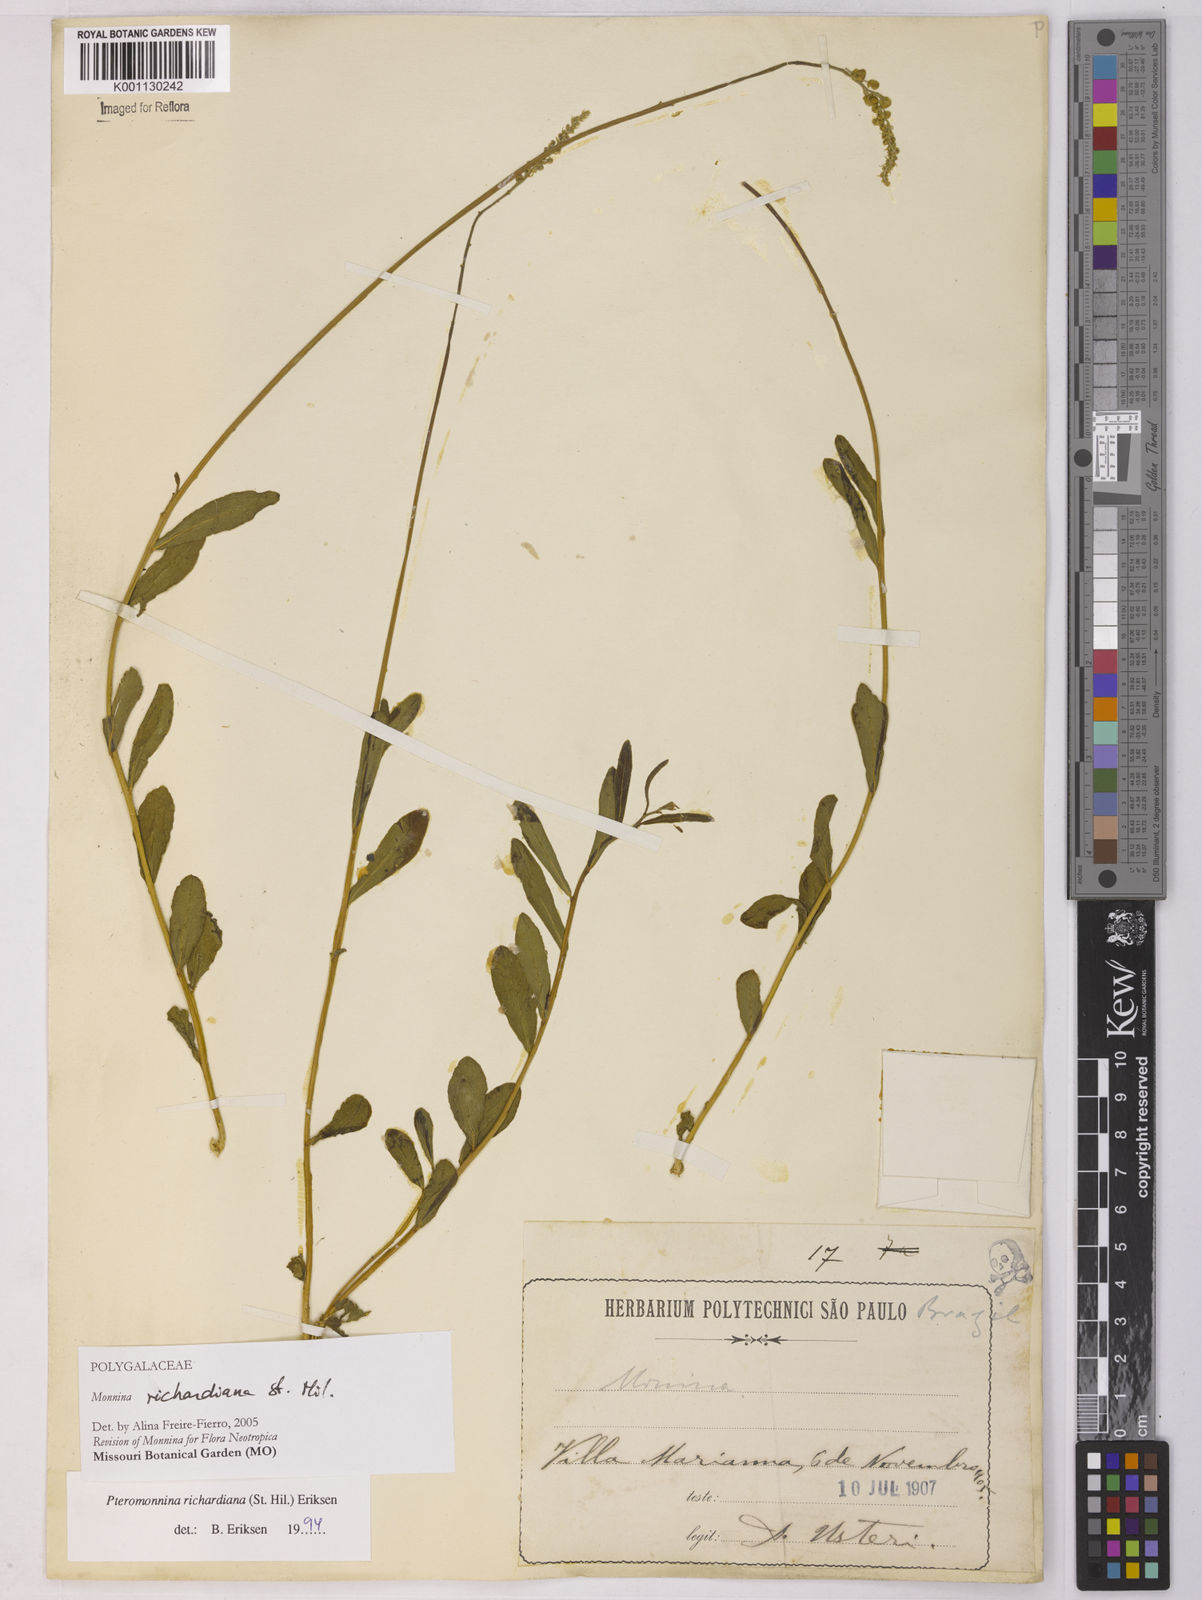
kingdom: Plantae
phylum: Tracheophyta
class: Magnoliopsida
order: Fabales
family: Polygalaceae
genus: Monnina
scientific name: Monnina richardiana
